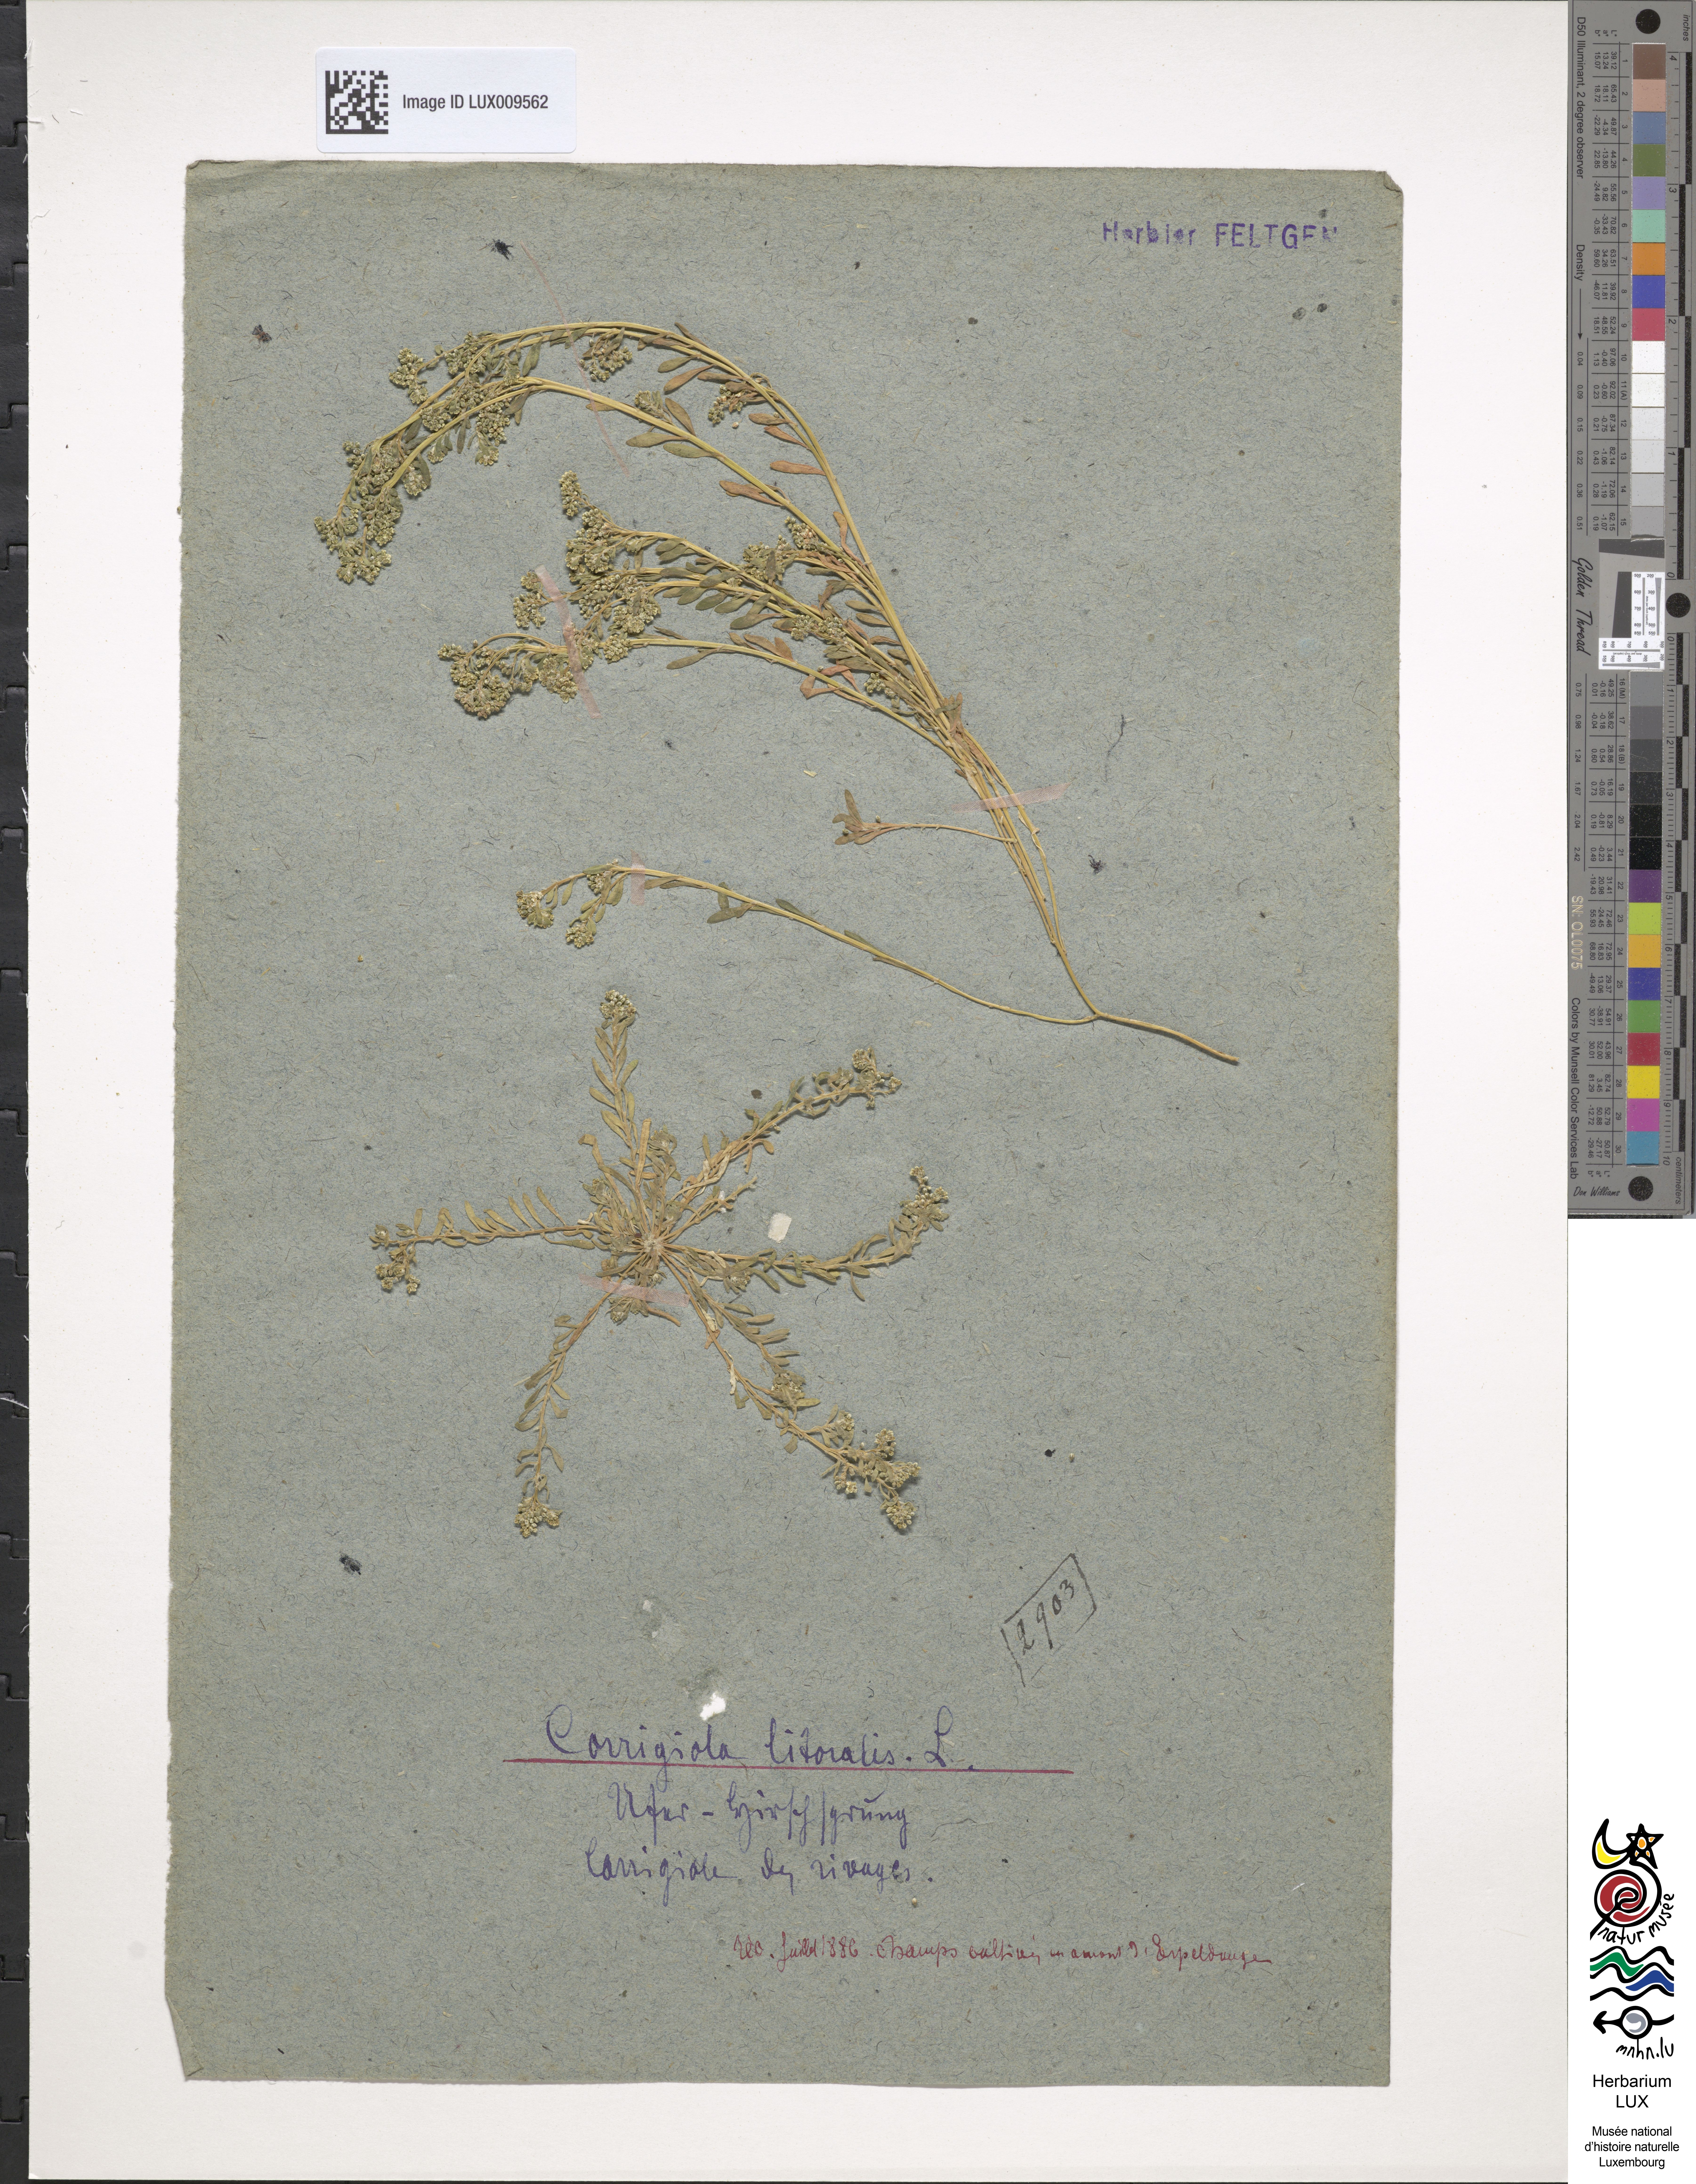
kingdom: Plantae
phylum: Tracheophyta
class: Magnoliopsida
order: Caryophyllales
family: Caryophyllaceae
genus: Corrigiola
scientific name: Corrigiola litoralis
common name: Strapwort
